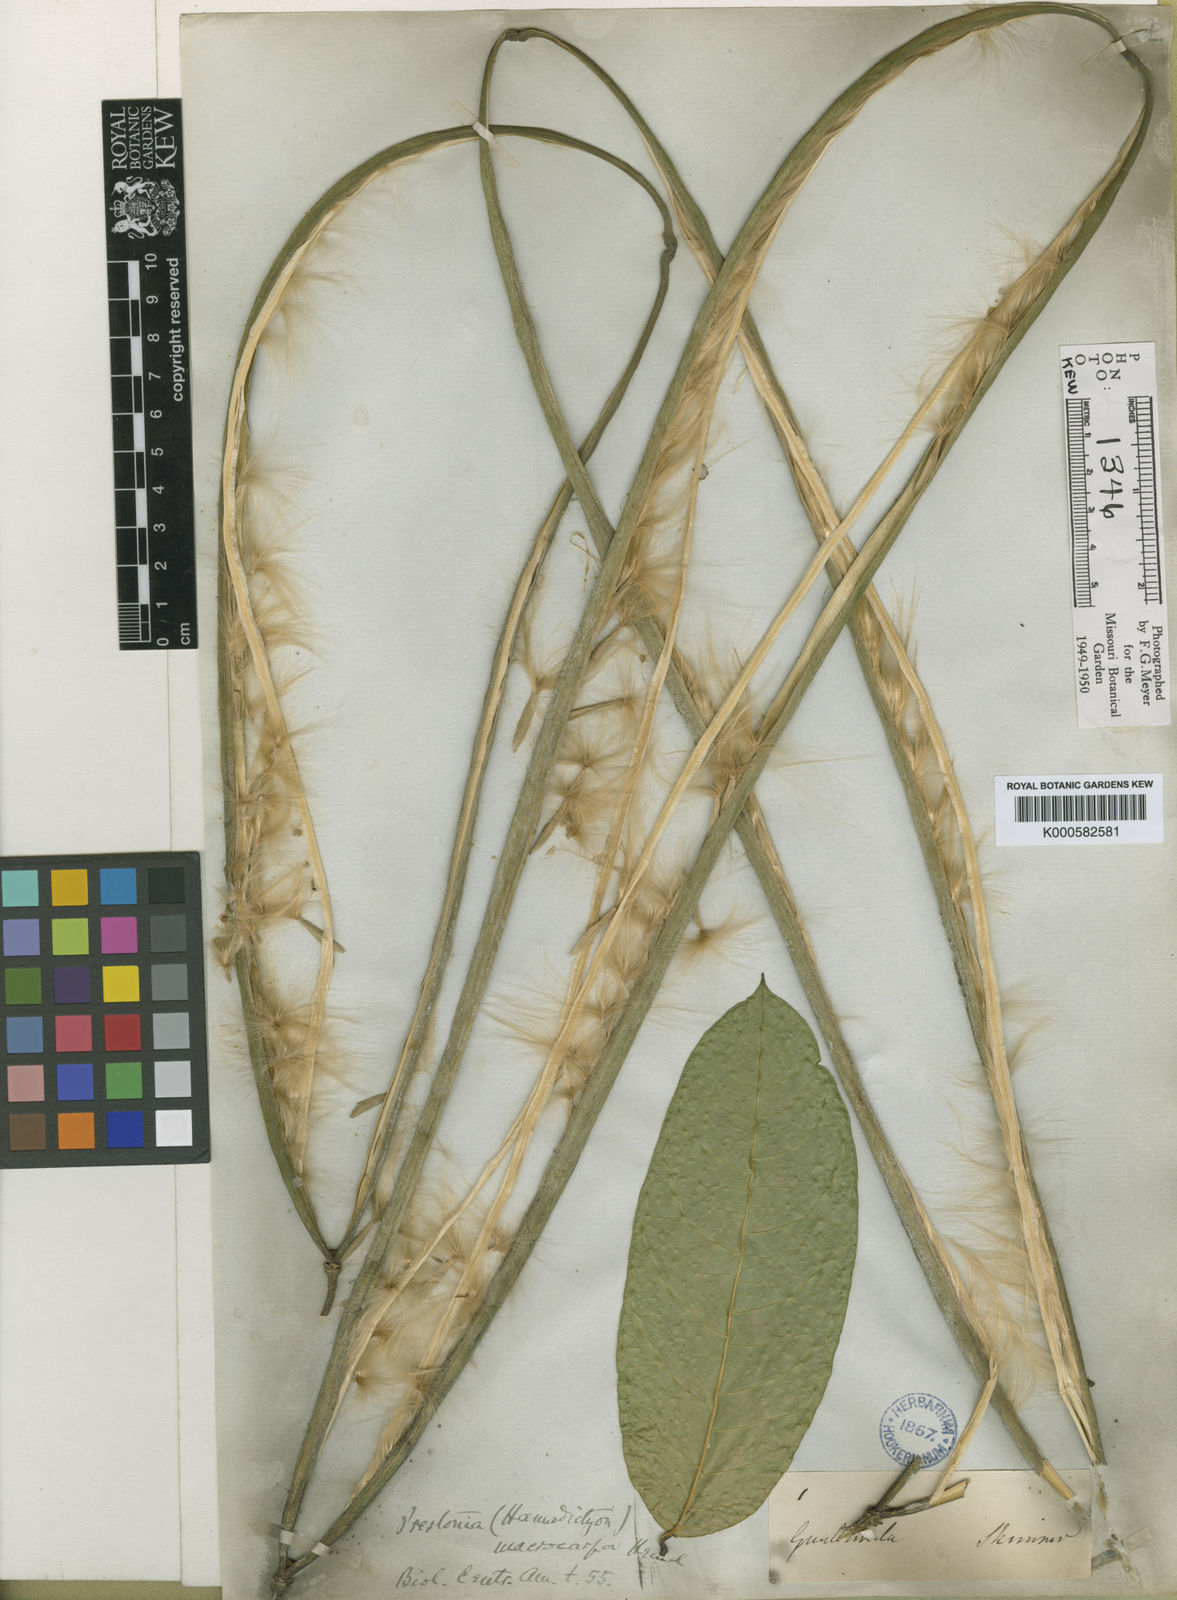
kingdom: Plantae
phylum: Tracheophyta
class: Magnoliopsida
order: Gentianales
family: Apocynaceae
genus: Prestonia
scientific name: Prestonia portobellensis
